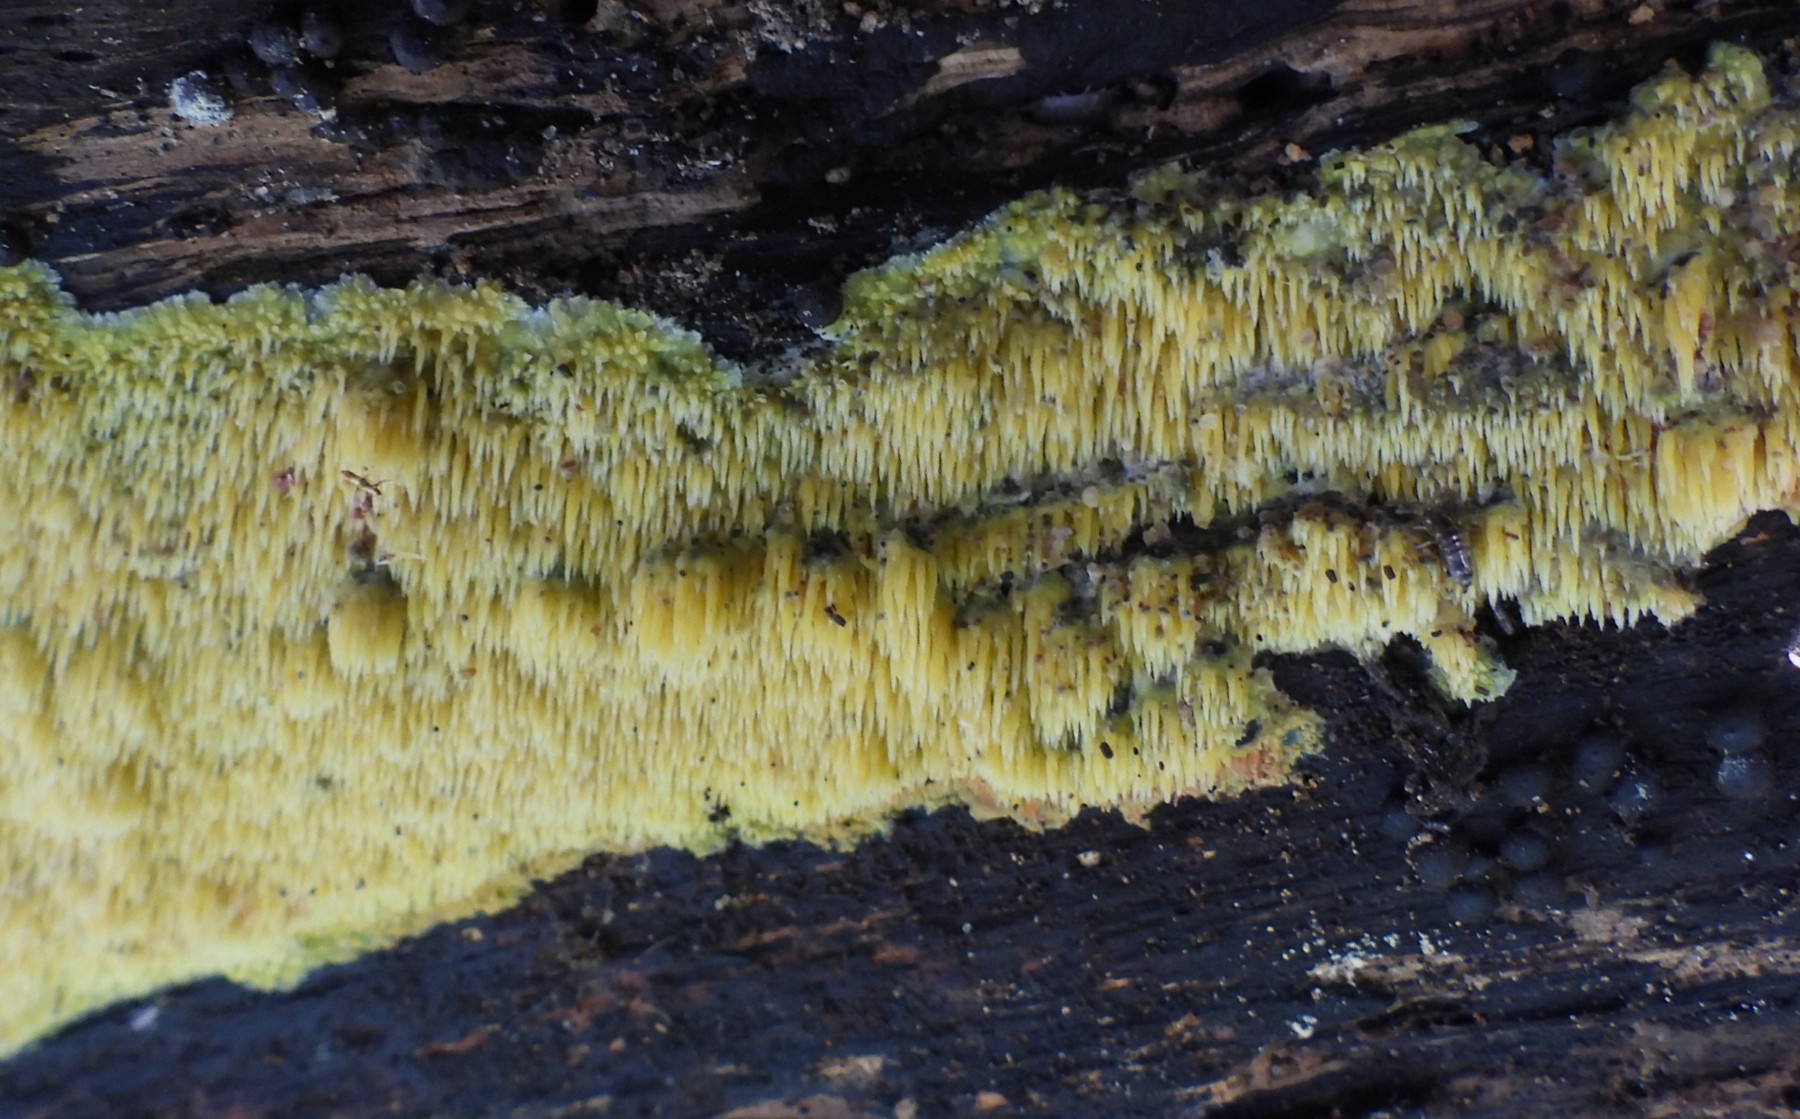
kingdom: Fungi
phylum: Basidiomycota
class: Agaricomycetes
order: Polyporales
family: Meruliaceae
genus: Mycoacia
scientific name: Mycoacia uda
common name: citrongul vokspig
